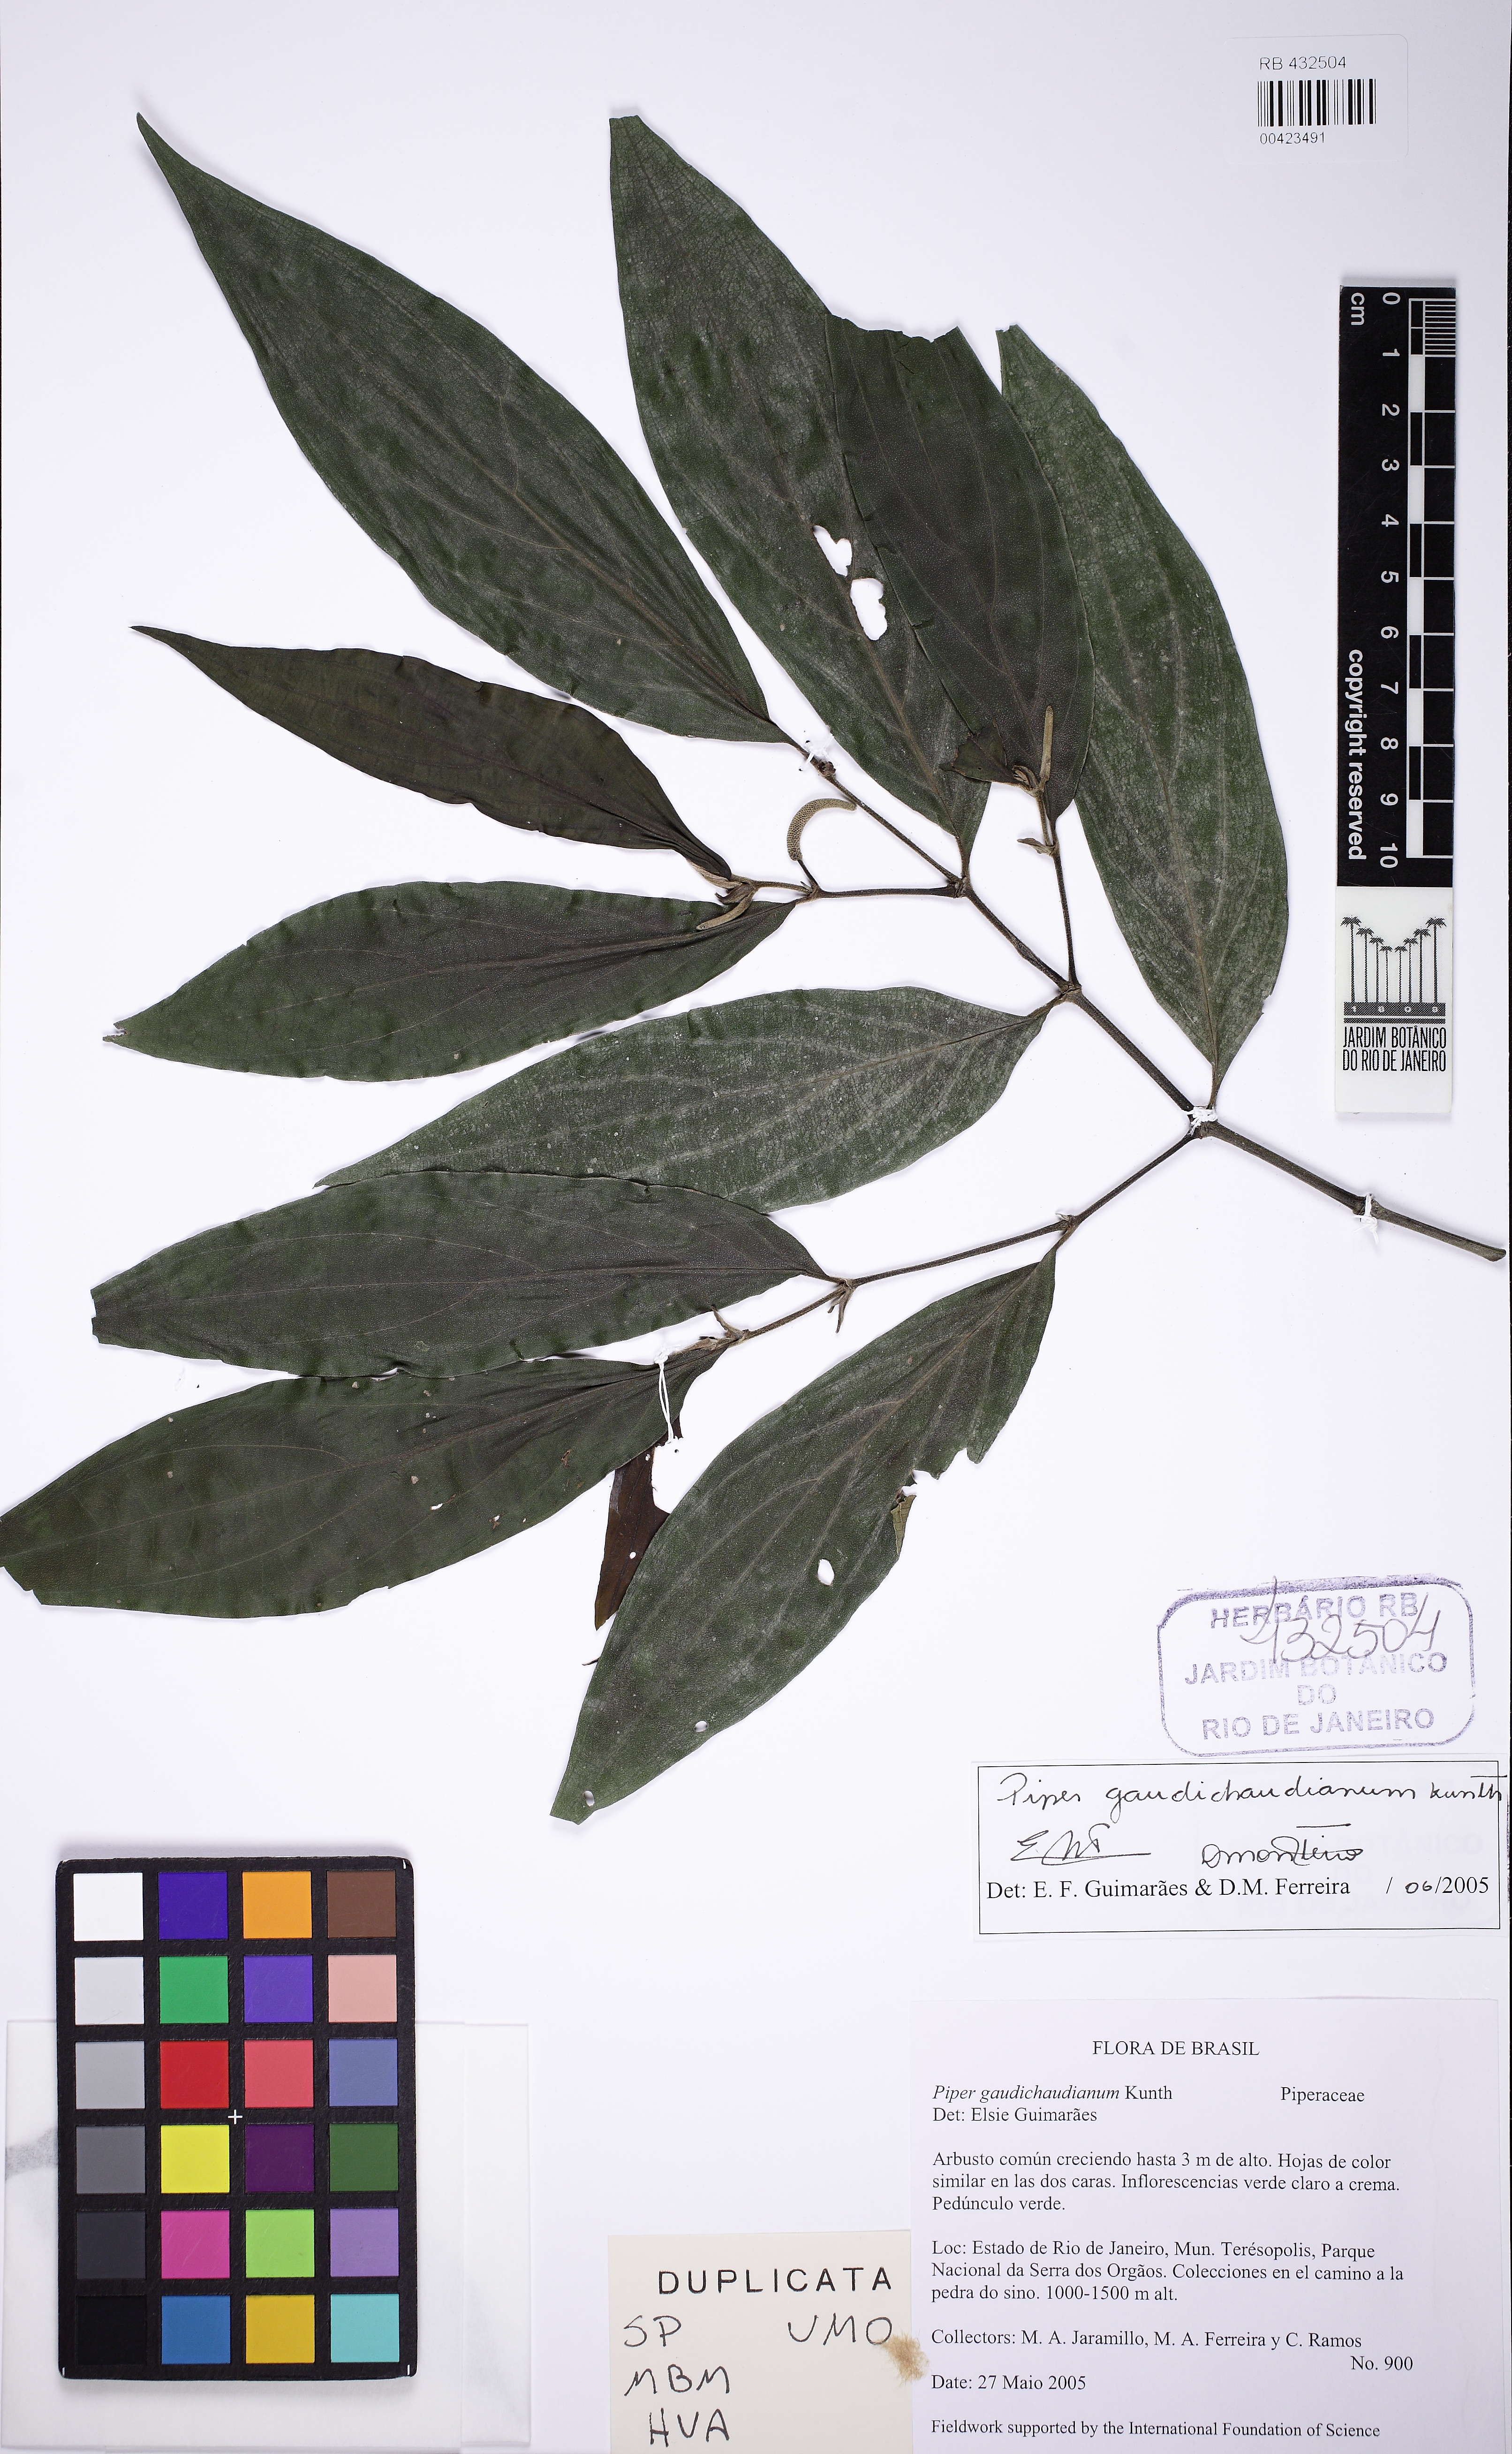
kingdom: Plantae
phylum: Tracheophyta
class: Magnoliopsida
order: Piperales
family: Piperaceae
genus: Piper
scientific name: Piper gaudichaudianum
